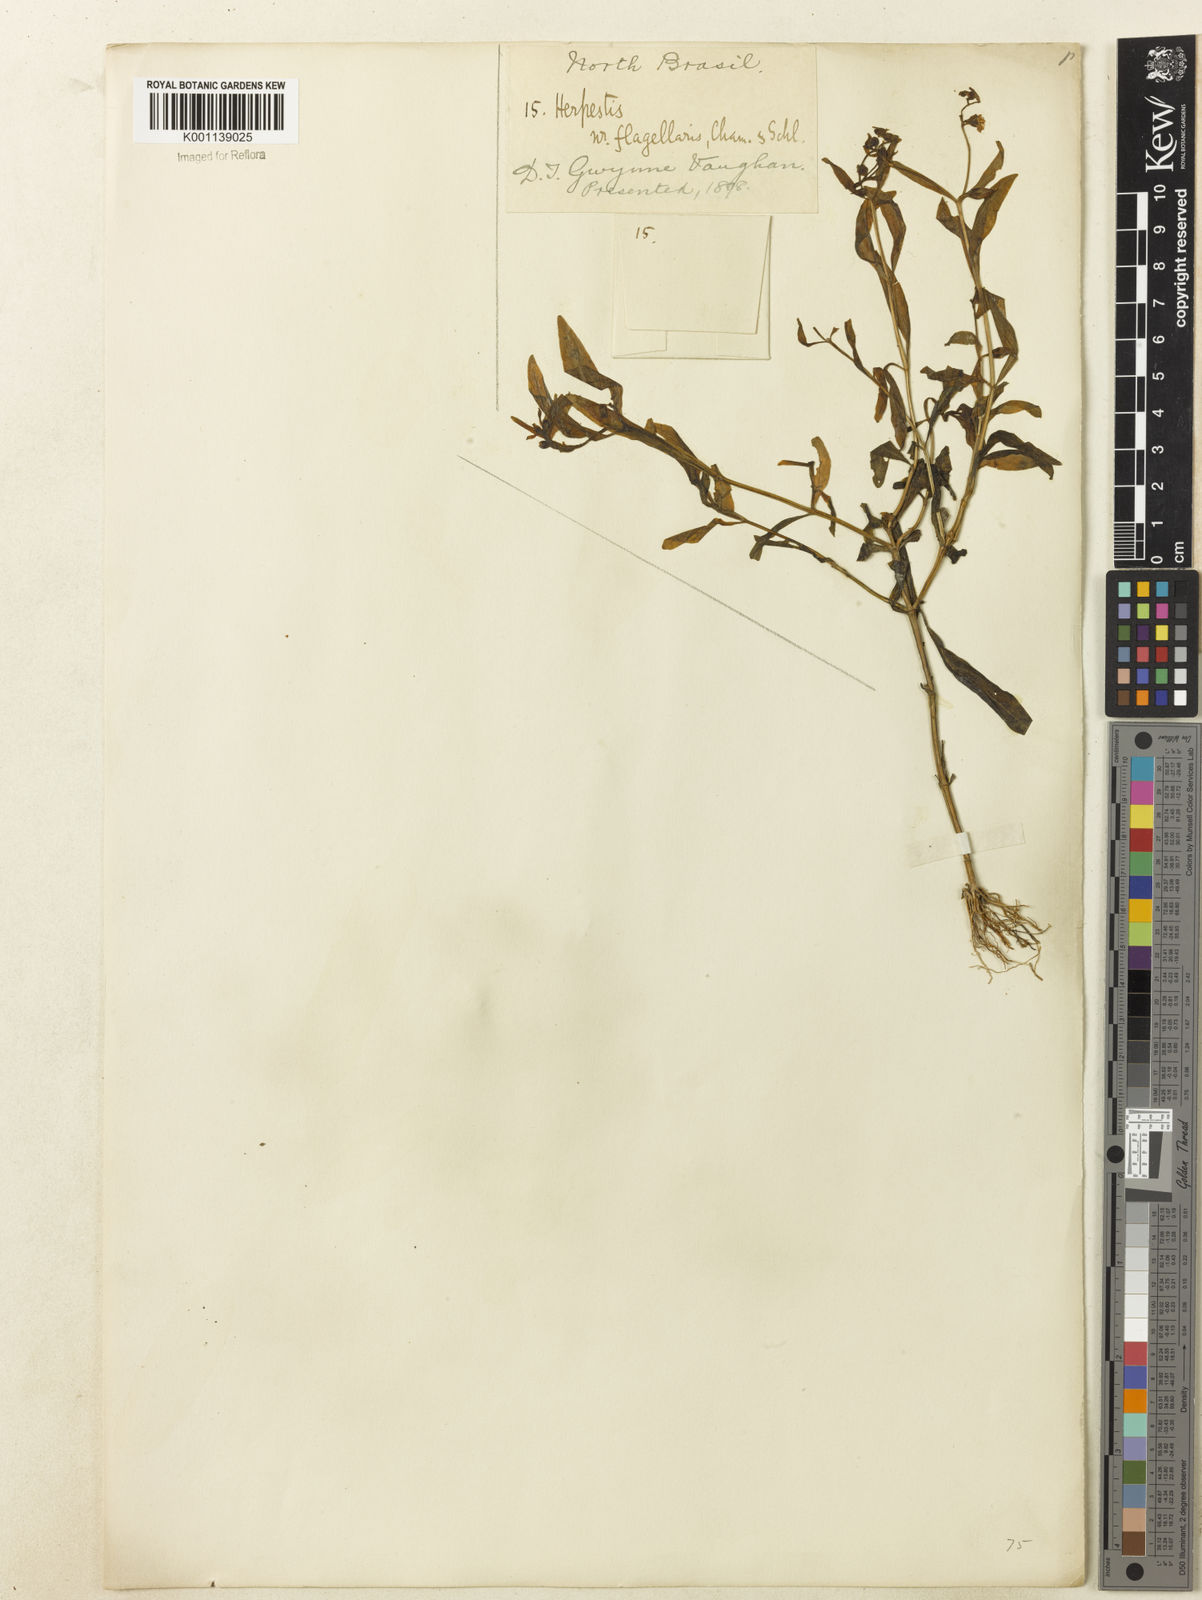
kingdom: Plantae
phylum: Tracheophyta
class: Magnoliopsida
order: Lamiales
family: Plantaginaceae
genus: Bacopa
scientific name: Bacopa
